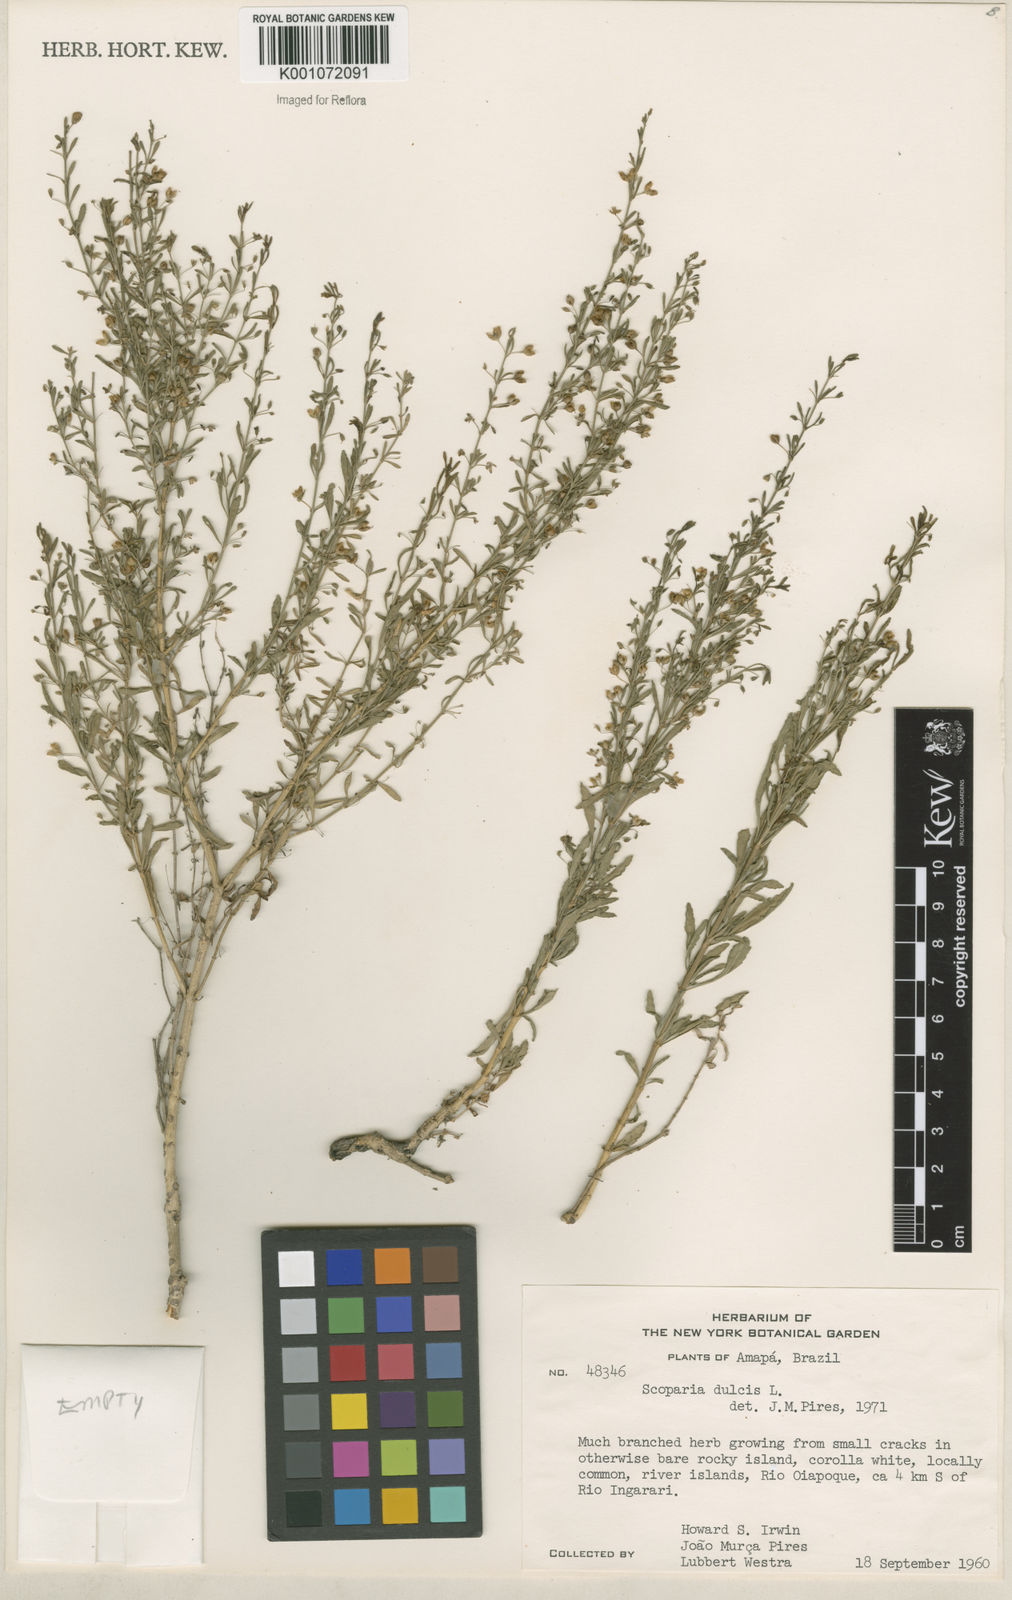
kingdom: Plantae
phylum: Tracheophyta
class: Magnoliopsida
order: Lamiales
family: Plantaginaceae
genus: Scoparia
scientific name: Scoparia dulcis
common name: Scoparia-weed
